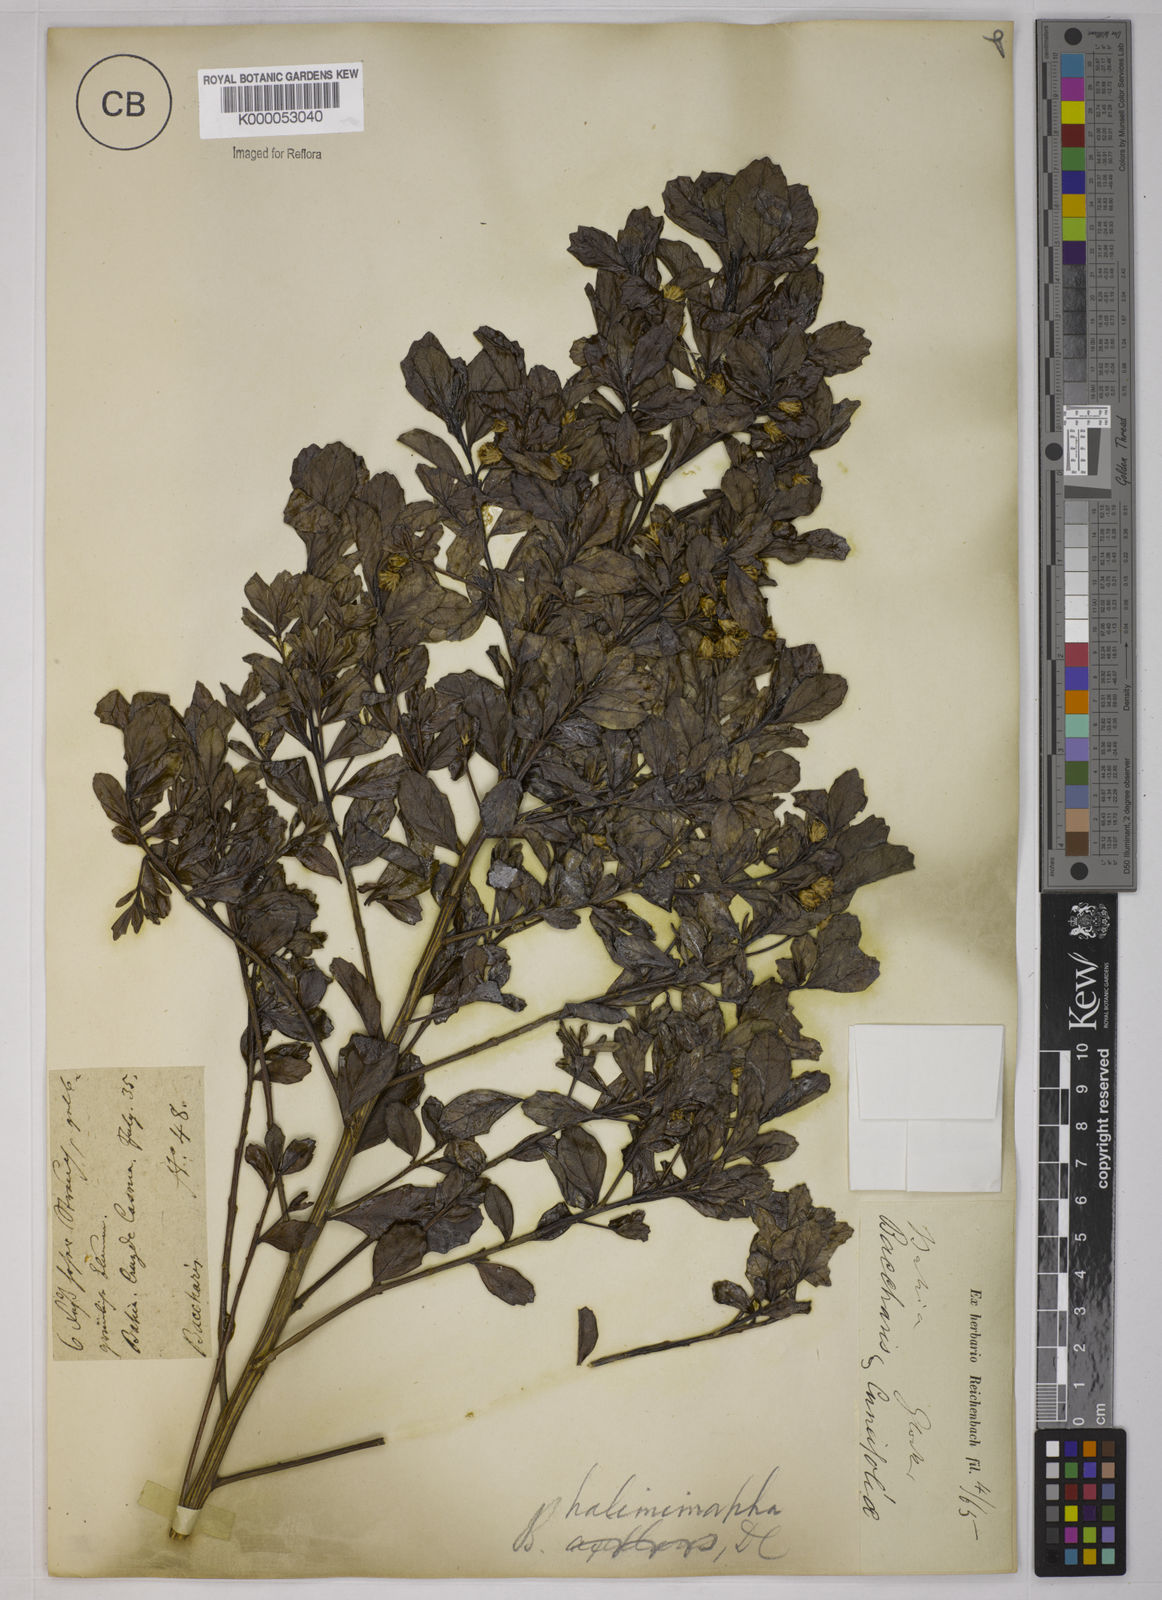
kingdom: Plantae
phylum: Tracheophyta
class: Magnoliopsida
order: Asterales
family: Asteraceae
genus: Baccharis
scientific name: Baccharis retusa
